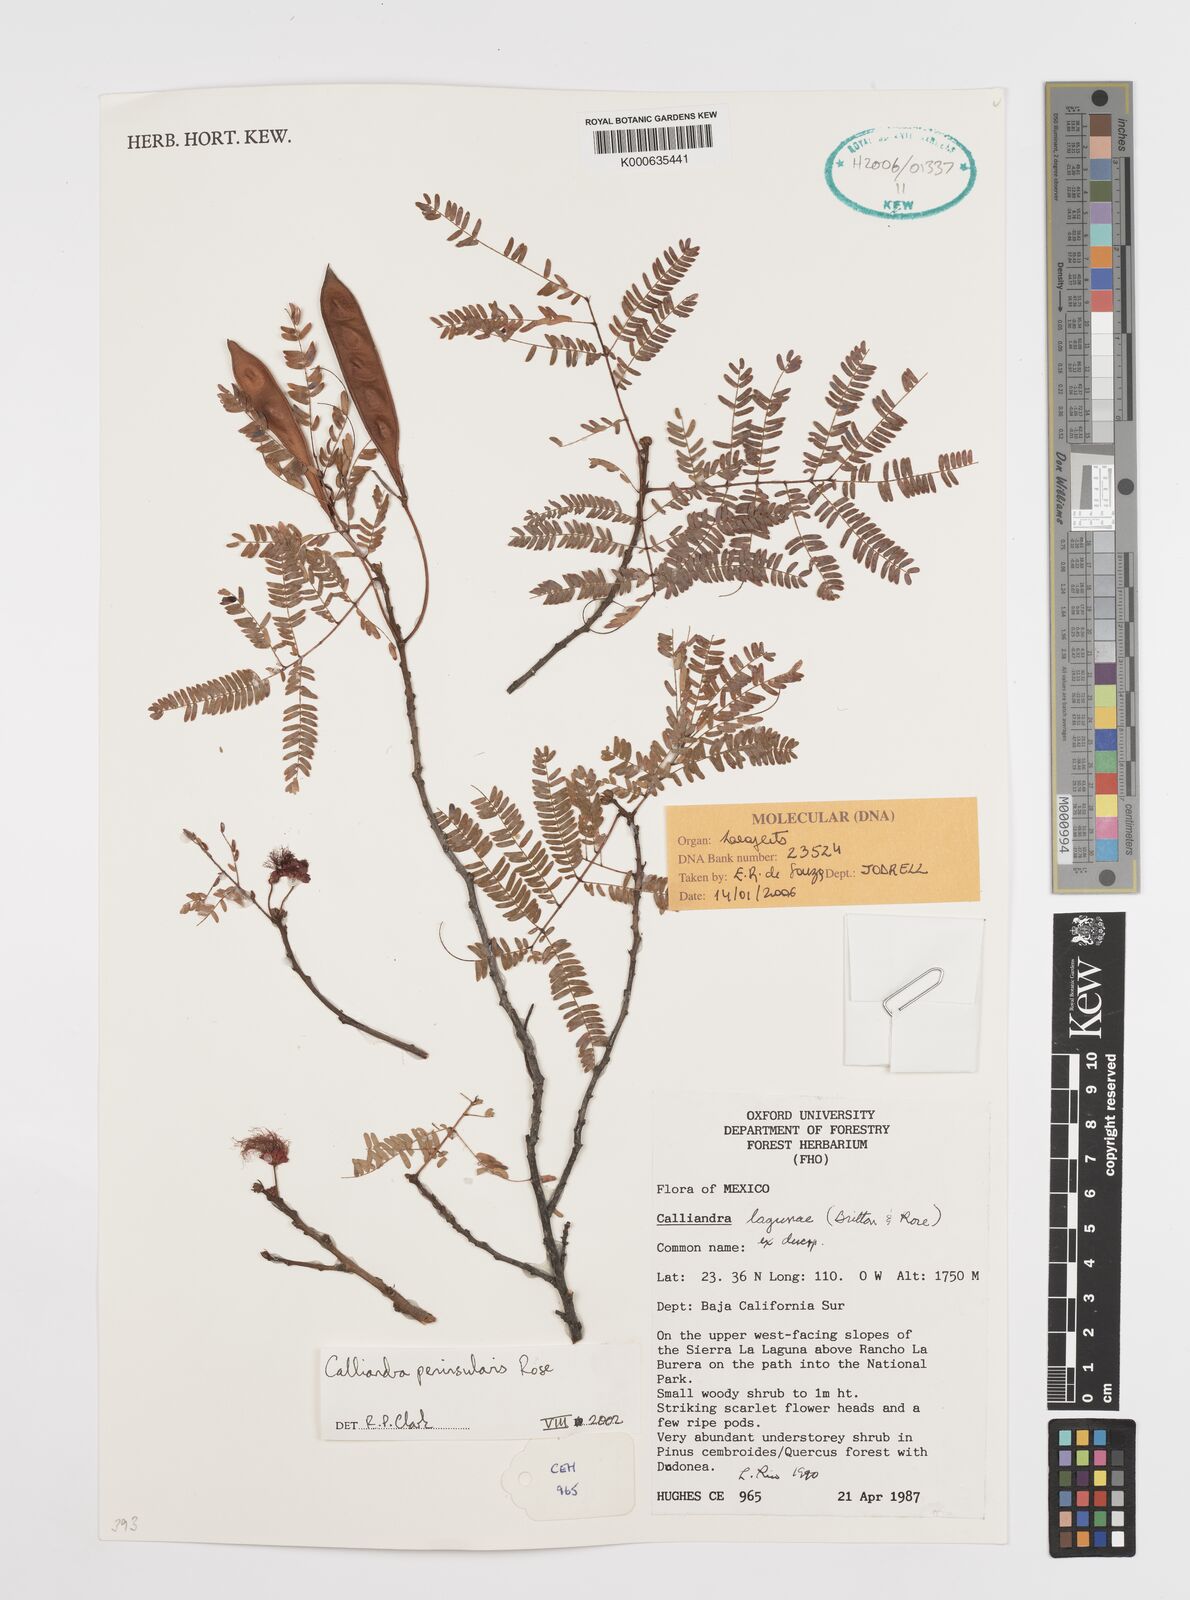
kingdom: Plantae
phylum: Tracheophyta
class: Magnoliopsida
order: Fabales
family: Fabaceae
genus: Calliandra
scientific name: Calliandra peninsularis
